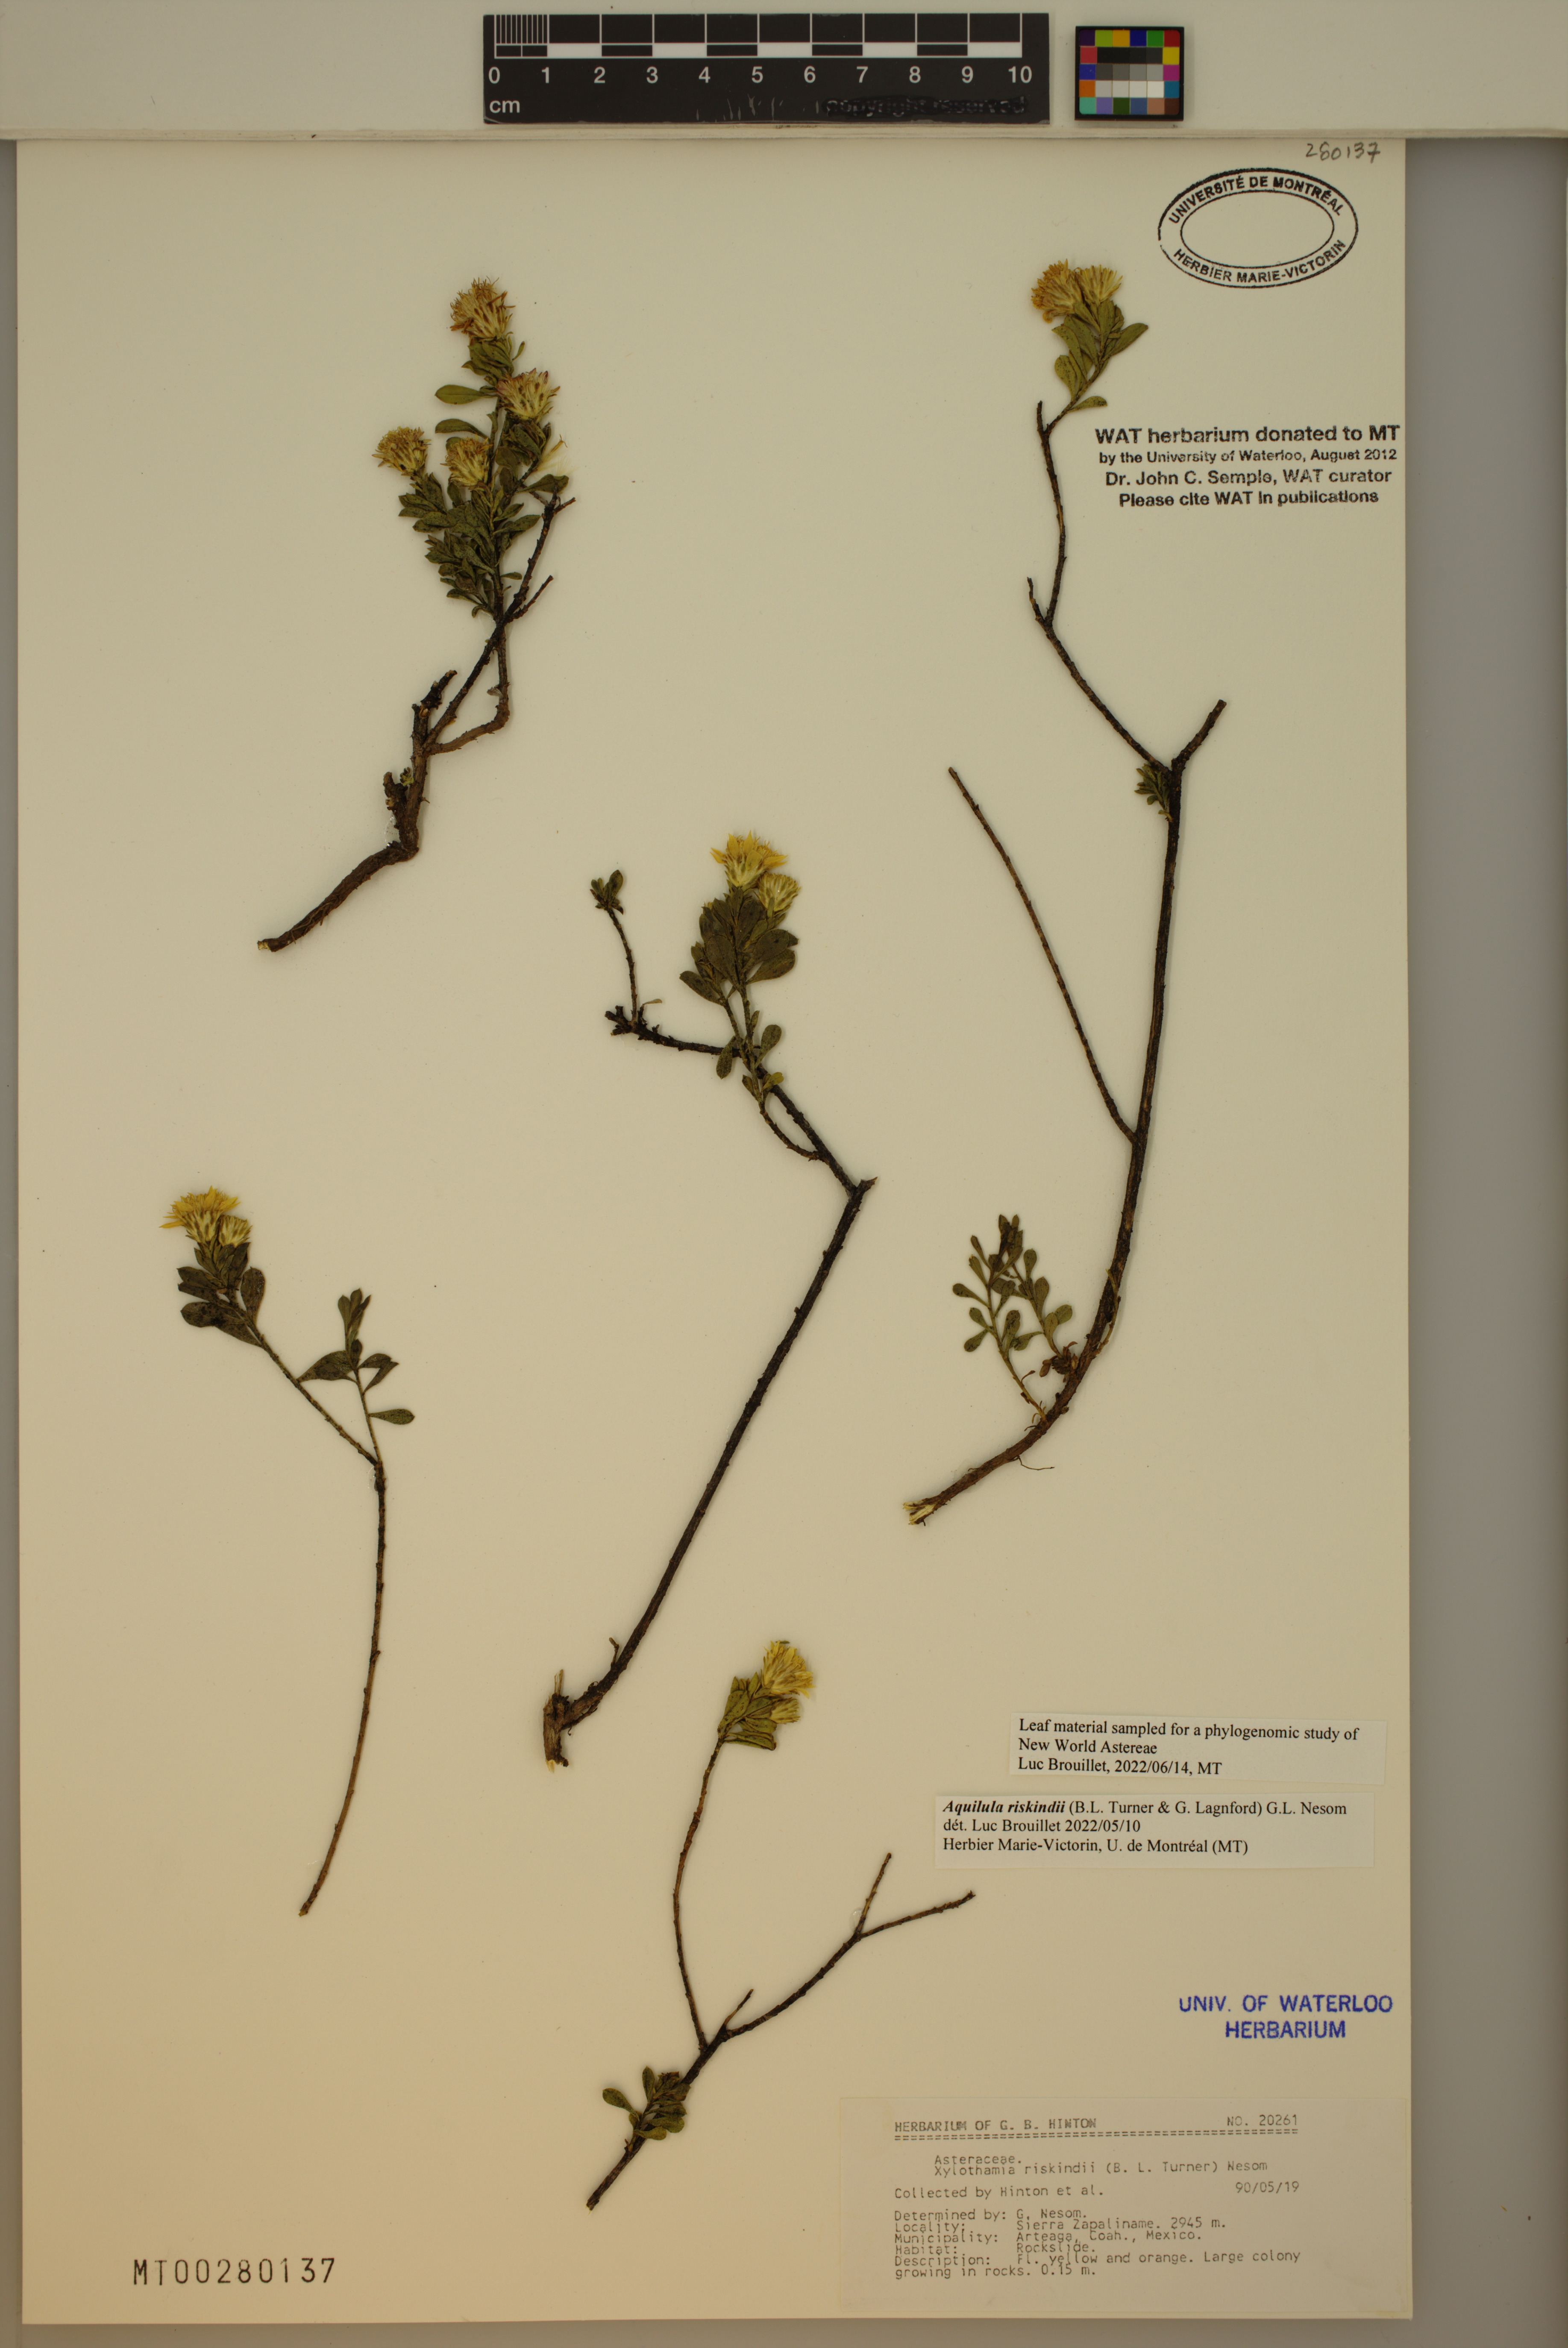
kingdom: Plantae
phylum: Tracheophyta
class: Magnoliopsida
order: Asterales
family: Asteraceae
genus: Aquilula
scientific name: Aquilula riskindii
